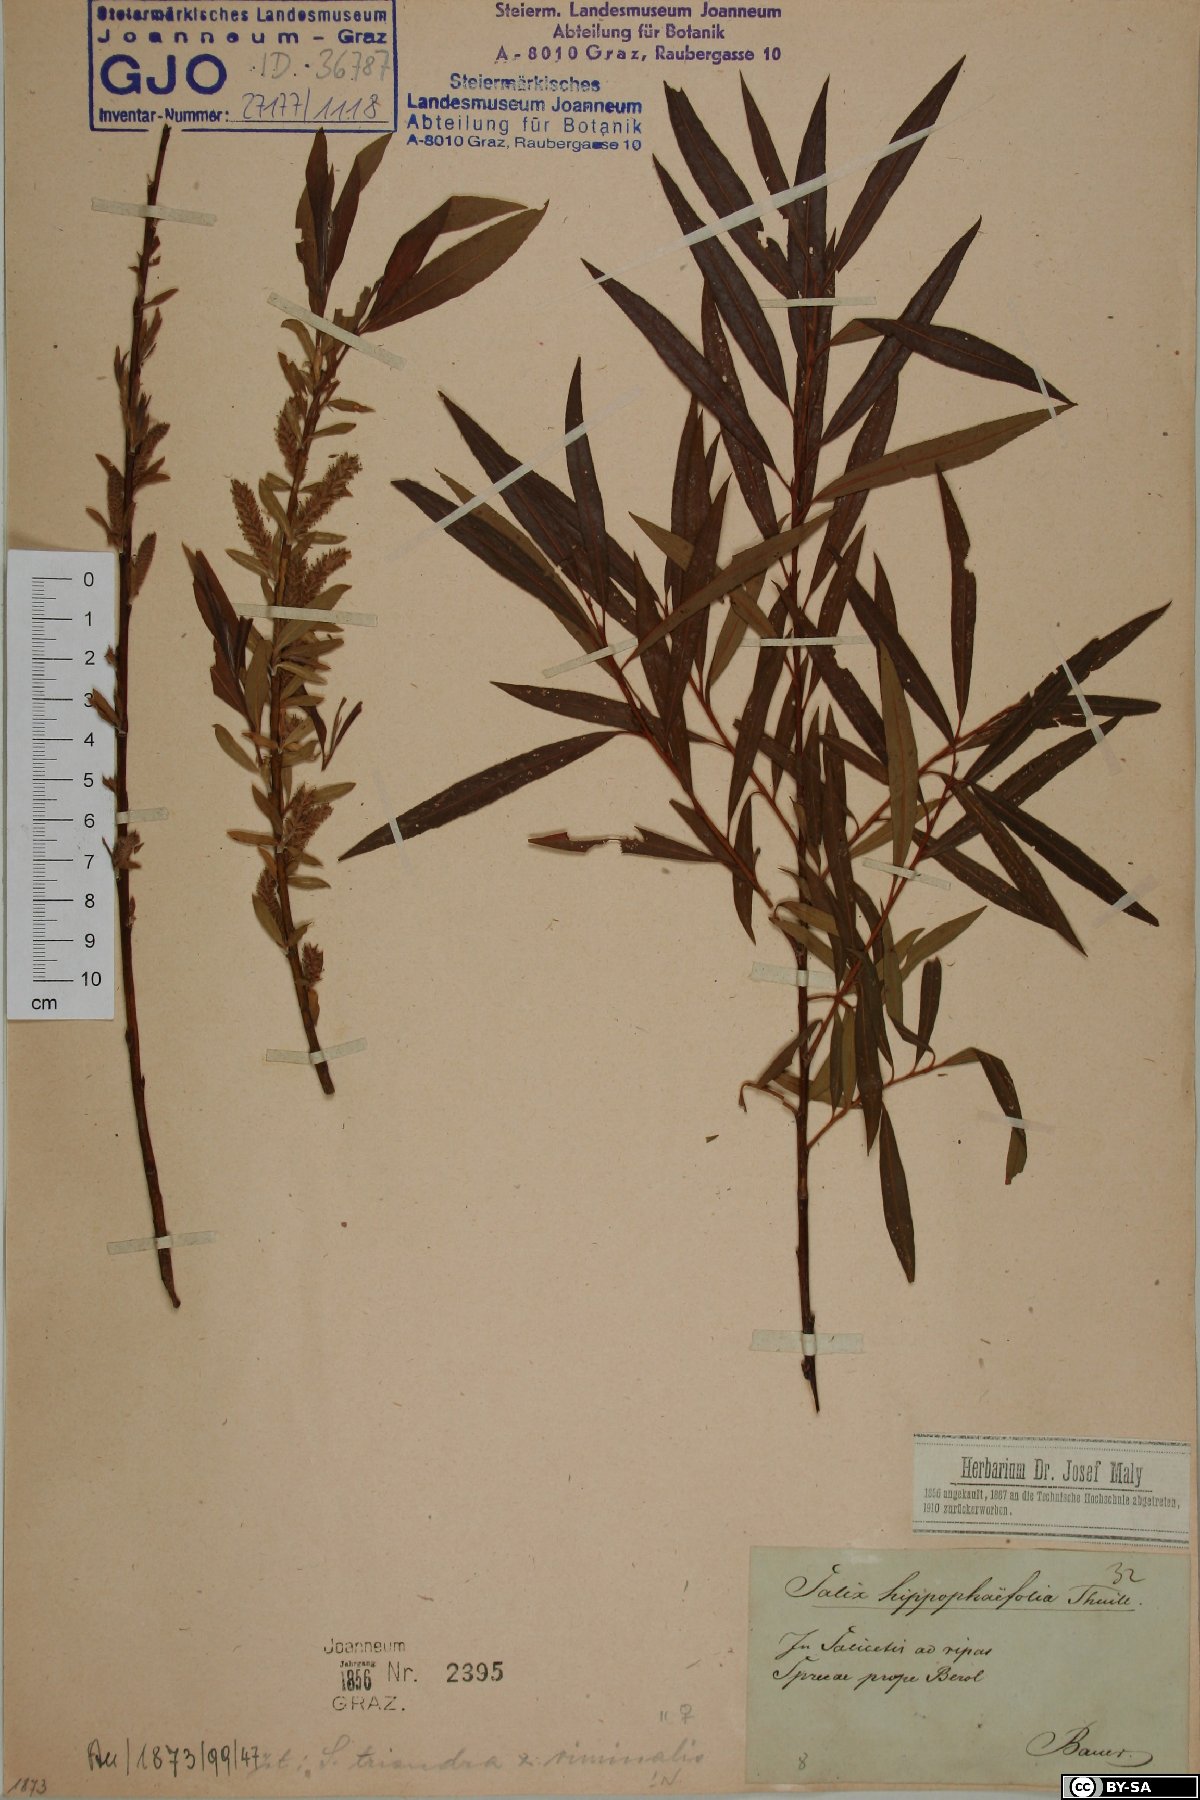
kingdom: Plantae
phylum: Tracheophyta
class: Magnoliopsida
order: Malpighiales
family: Salicaceae
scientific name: Salicaceae
